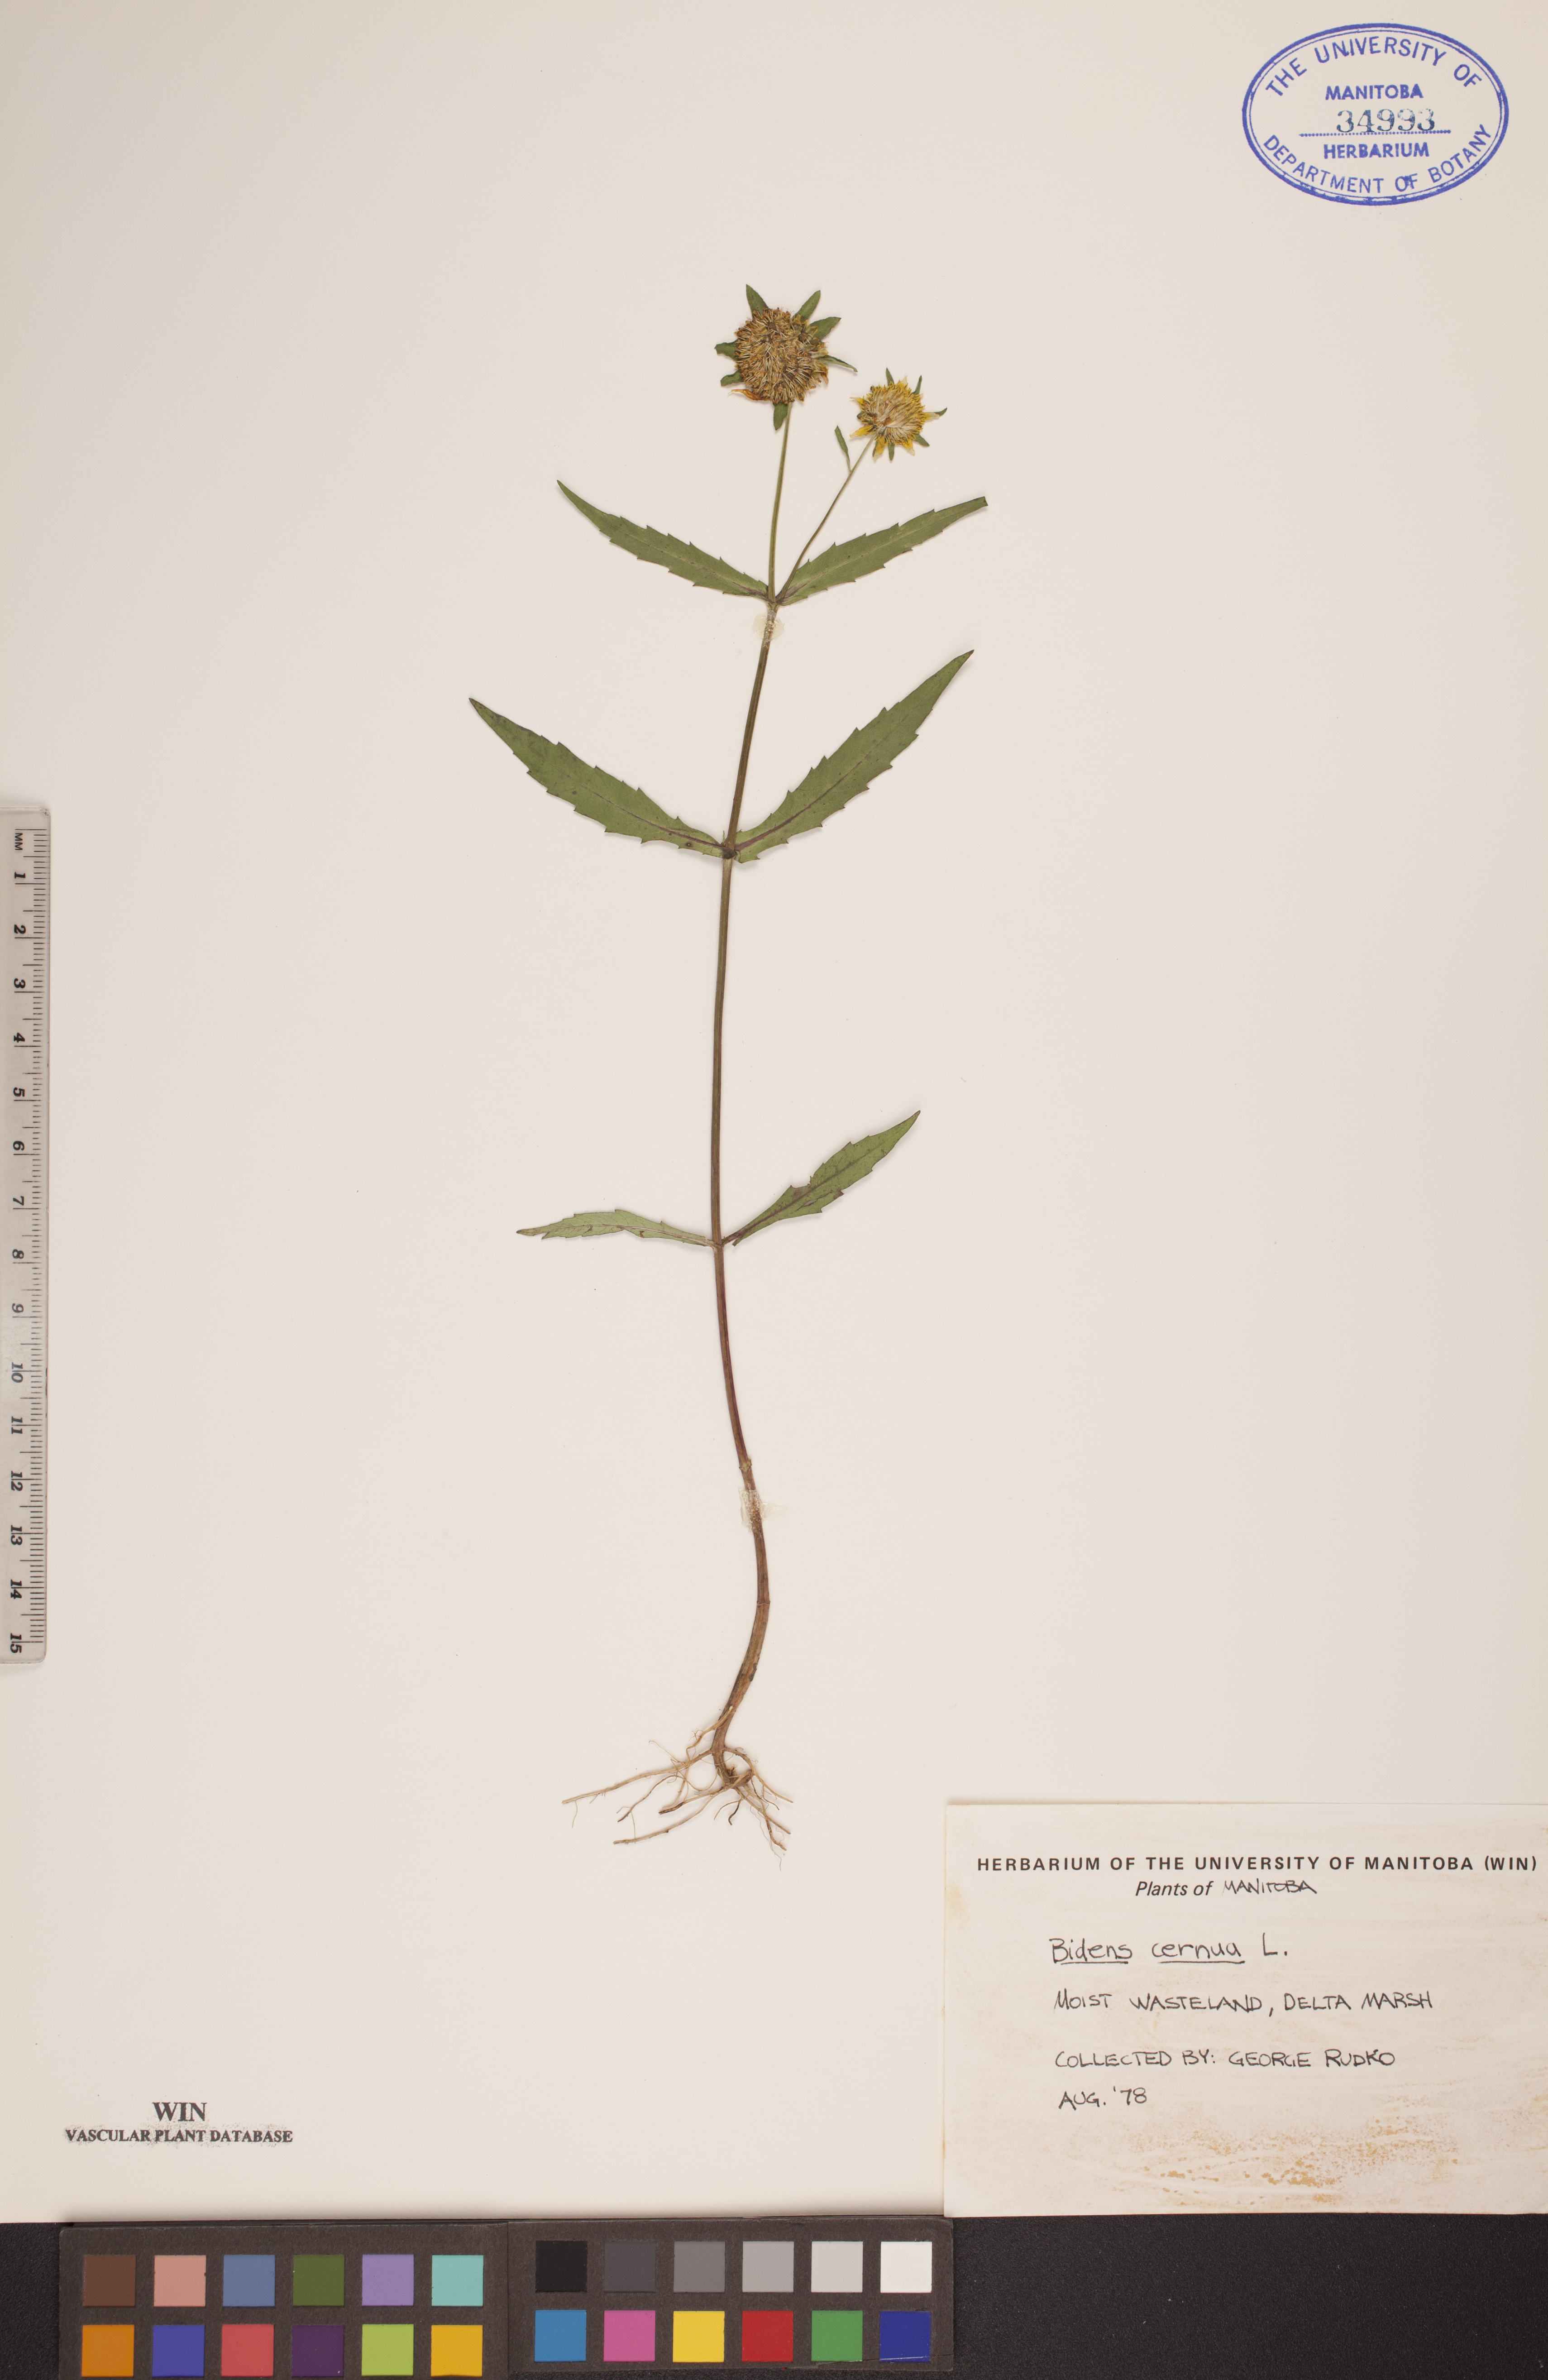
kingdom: Plantae
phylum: Tracheophyta
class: Magnoliopsida
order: Asterales
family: Asteraceae
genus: Bidens
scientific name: Bidens cernua
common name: Nodding bur-marigold
